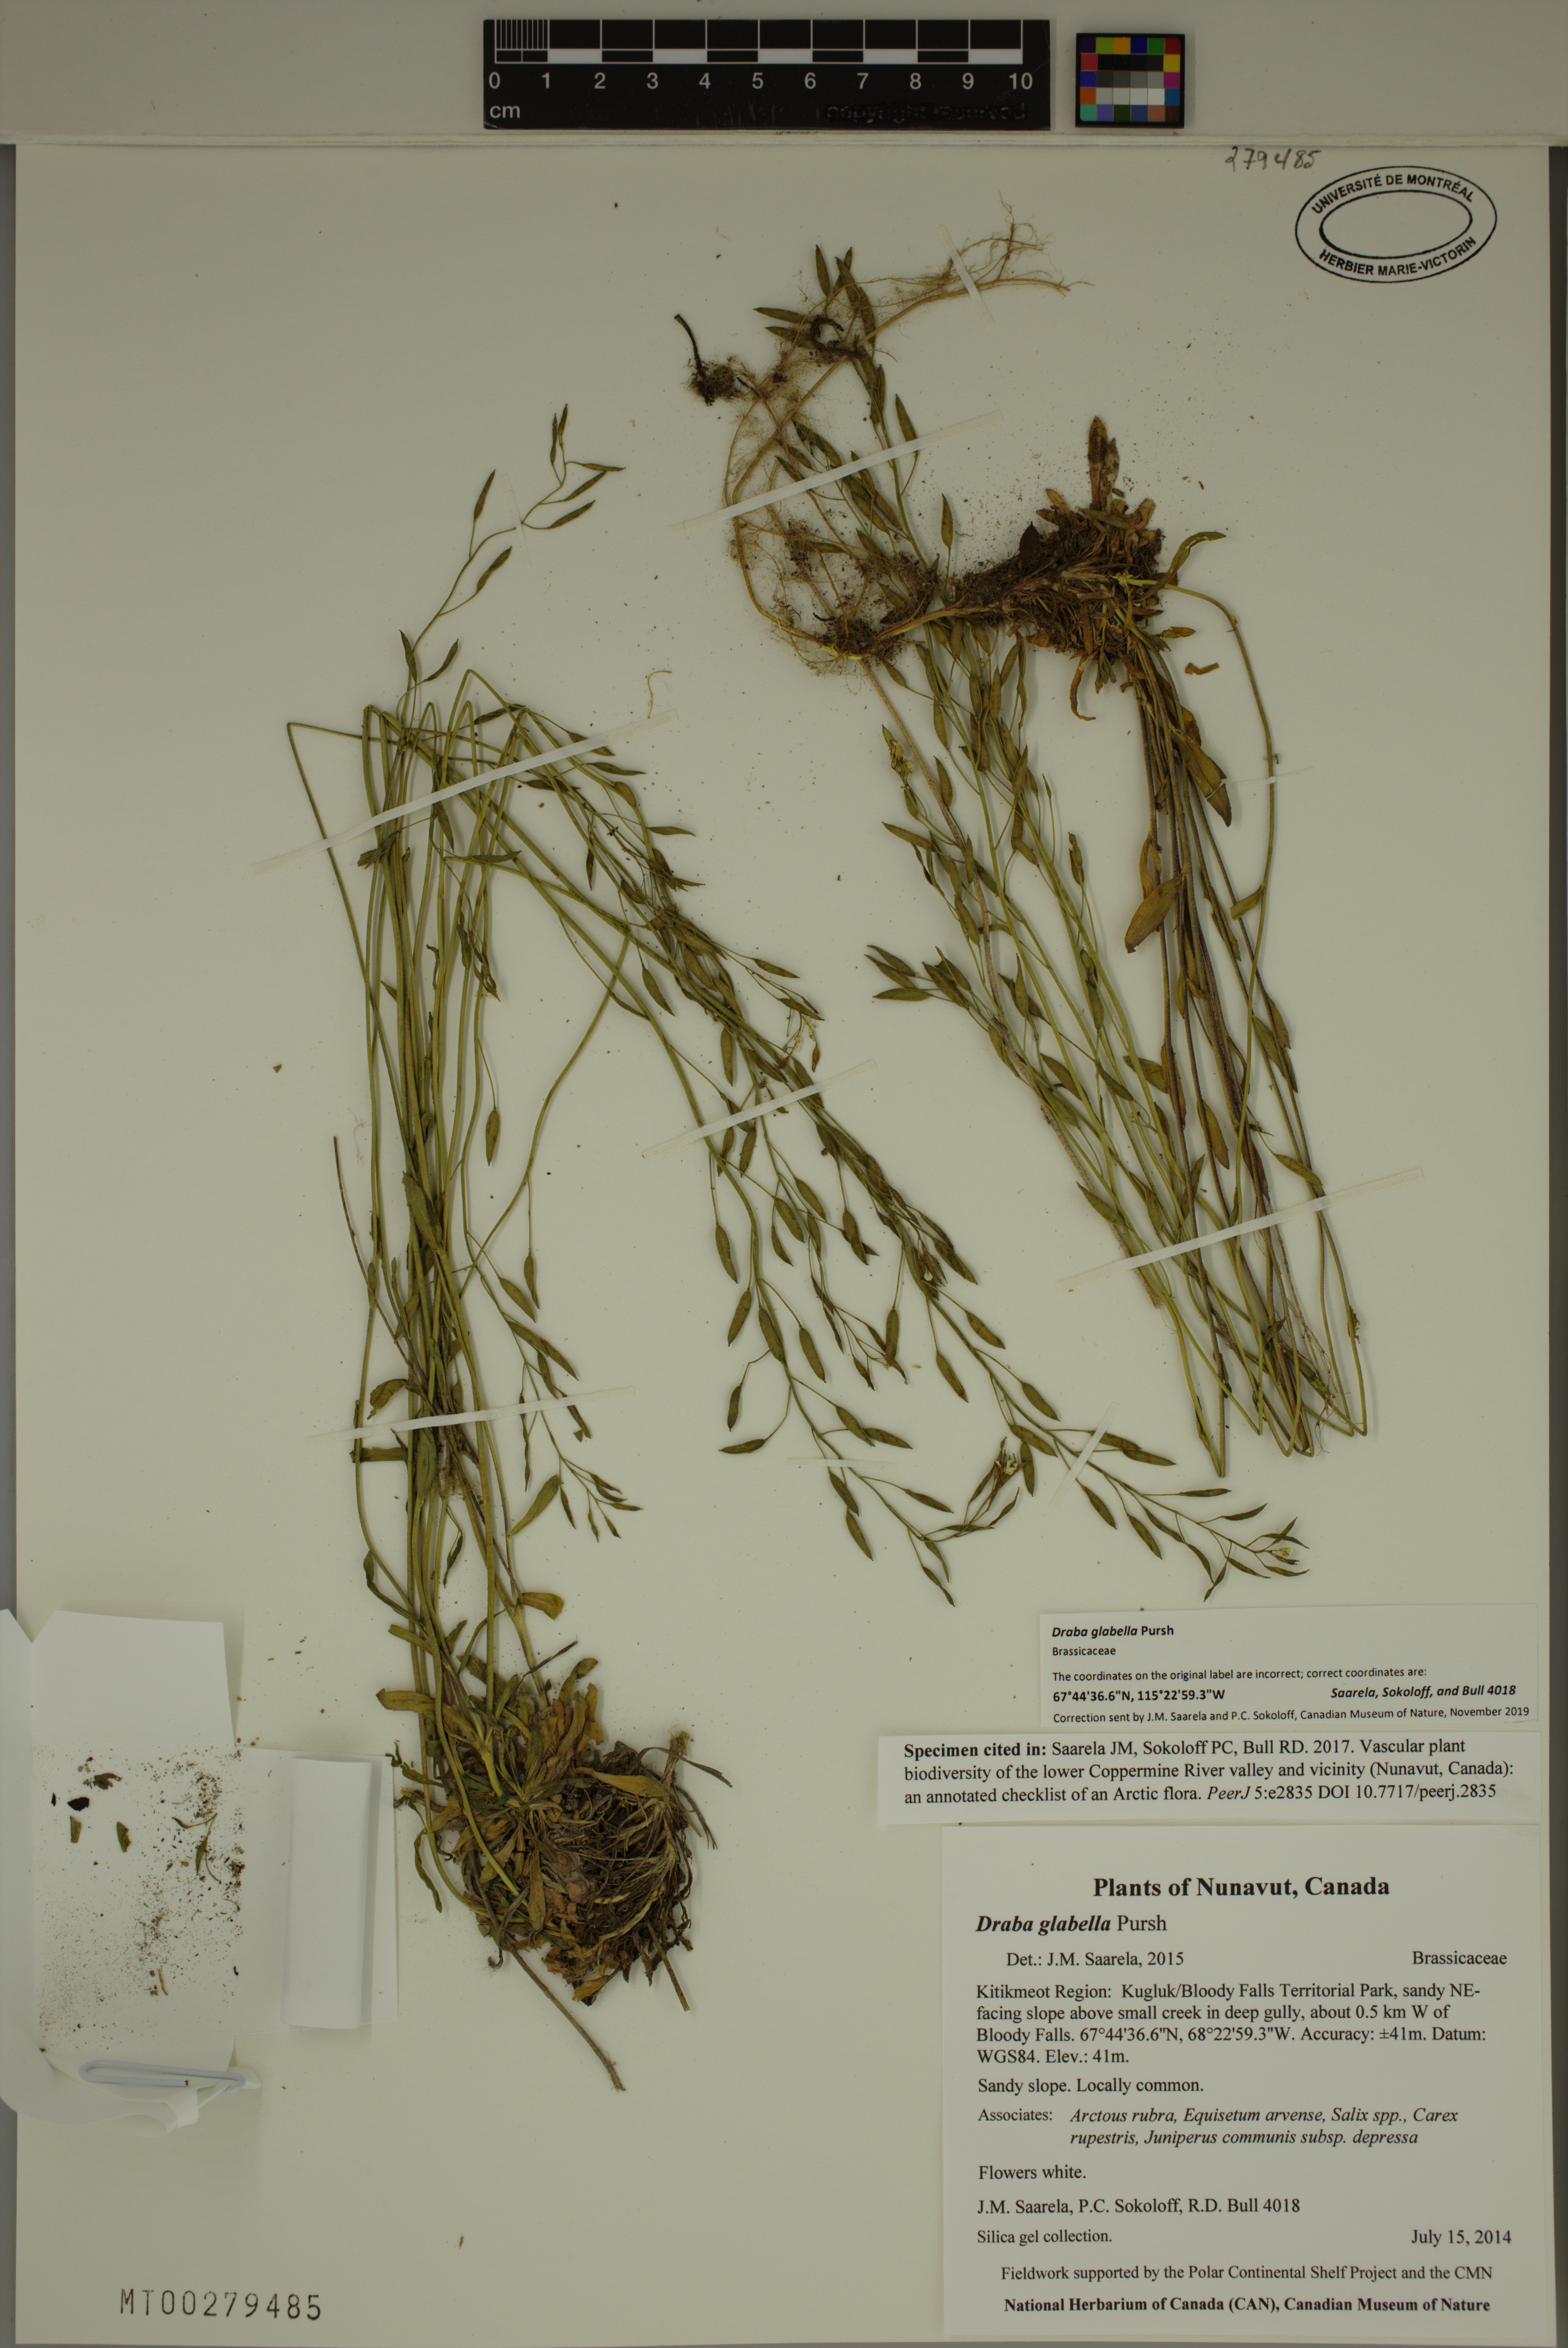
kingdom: Plantae
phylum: Tracheophyta
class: Magnoliopsida
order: Brassicales
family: Brassicaceae
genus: Draba
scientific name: Draba glabella
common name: Glaucous draba
